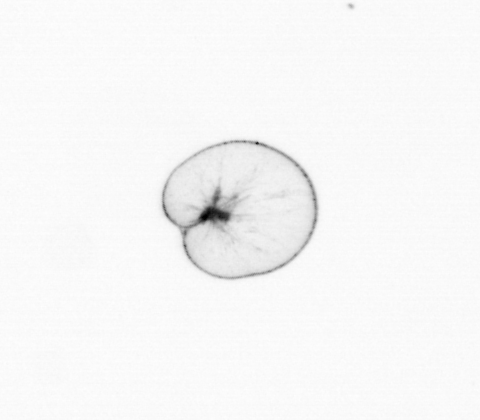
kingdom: Chromista
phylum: Myzozoa
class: Dinophyceae
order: Noctilucales
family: Noctilucaceae
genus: Noctiluca
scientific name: Noctiluca scintillans
